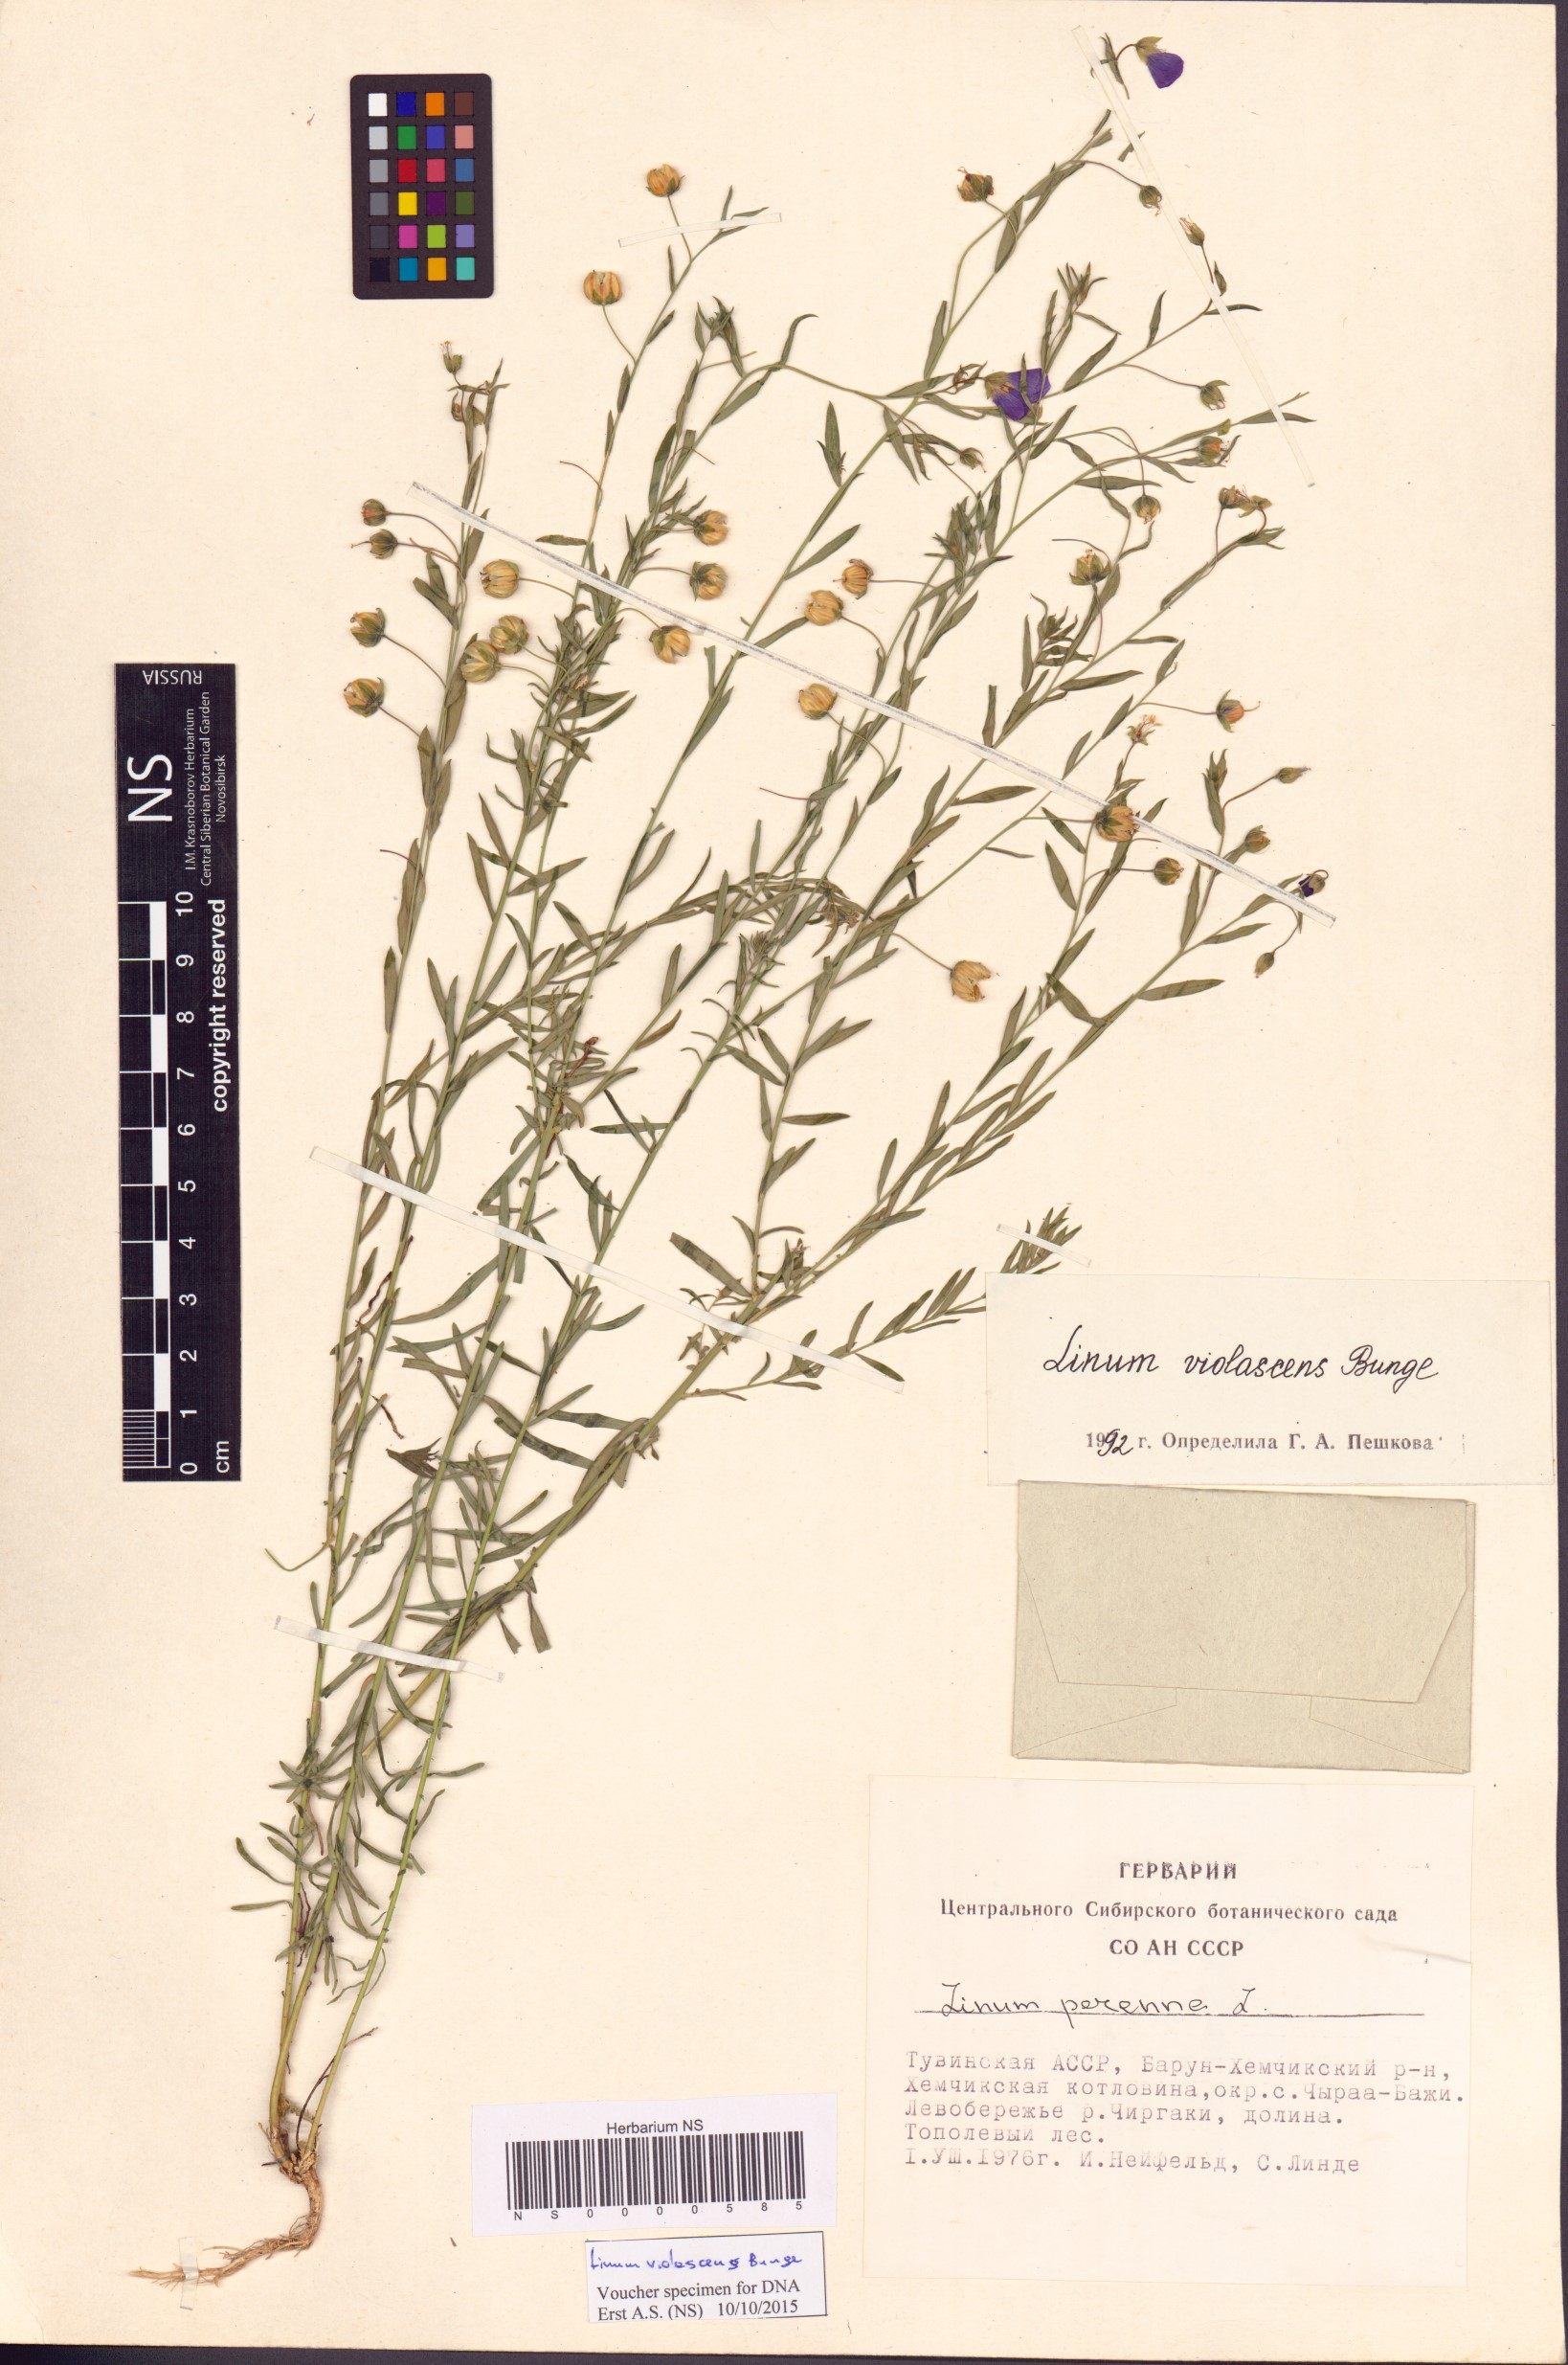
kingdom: Plantae
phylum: Tracheophyta
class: Magnoliopsida
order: Malpighiales
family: Linaceae
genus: Linum
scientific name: Linum violascens
